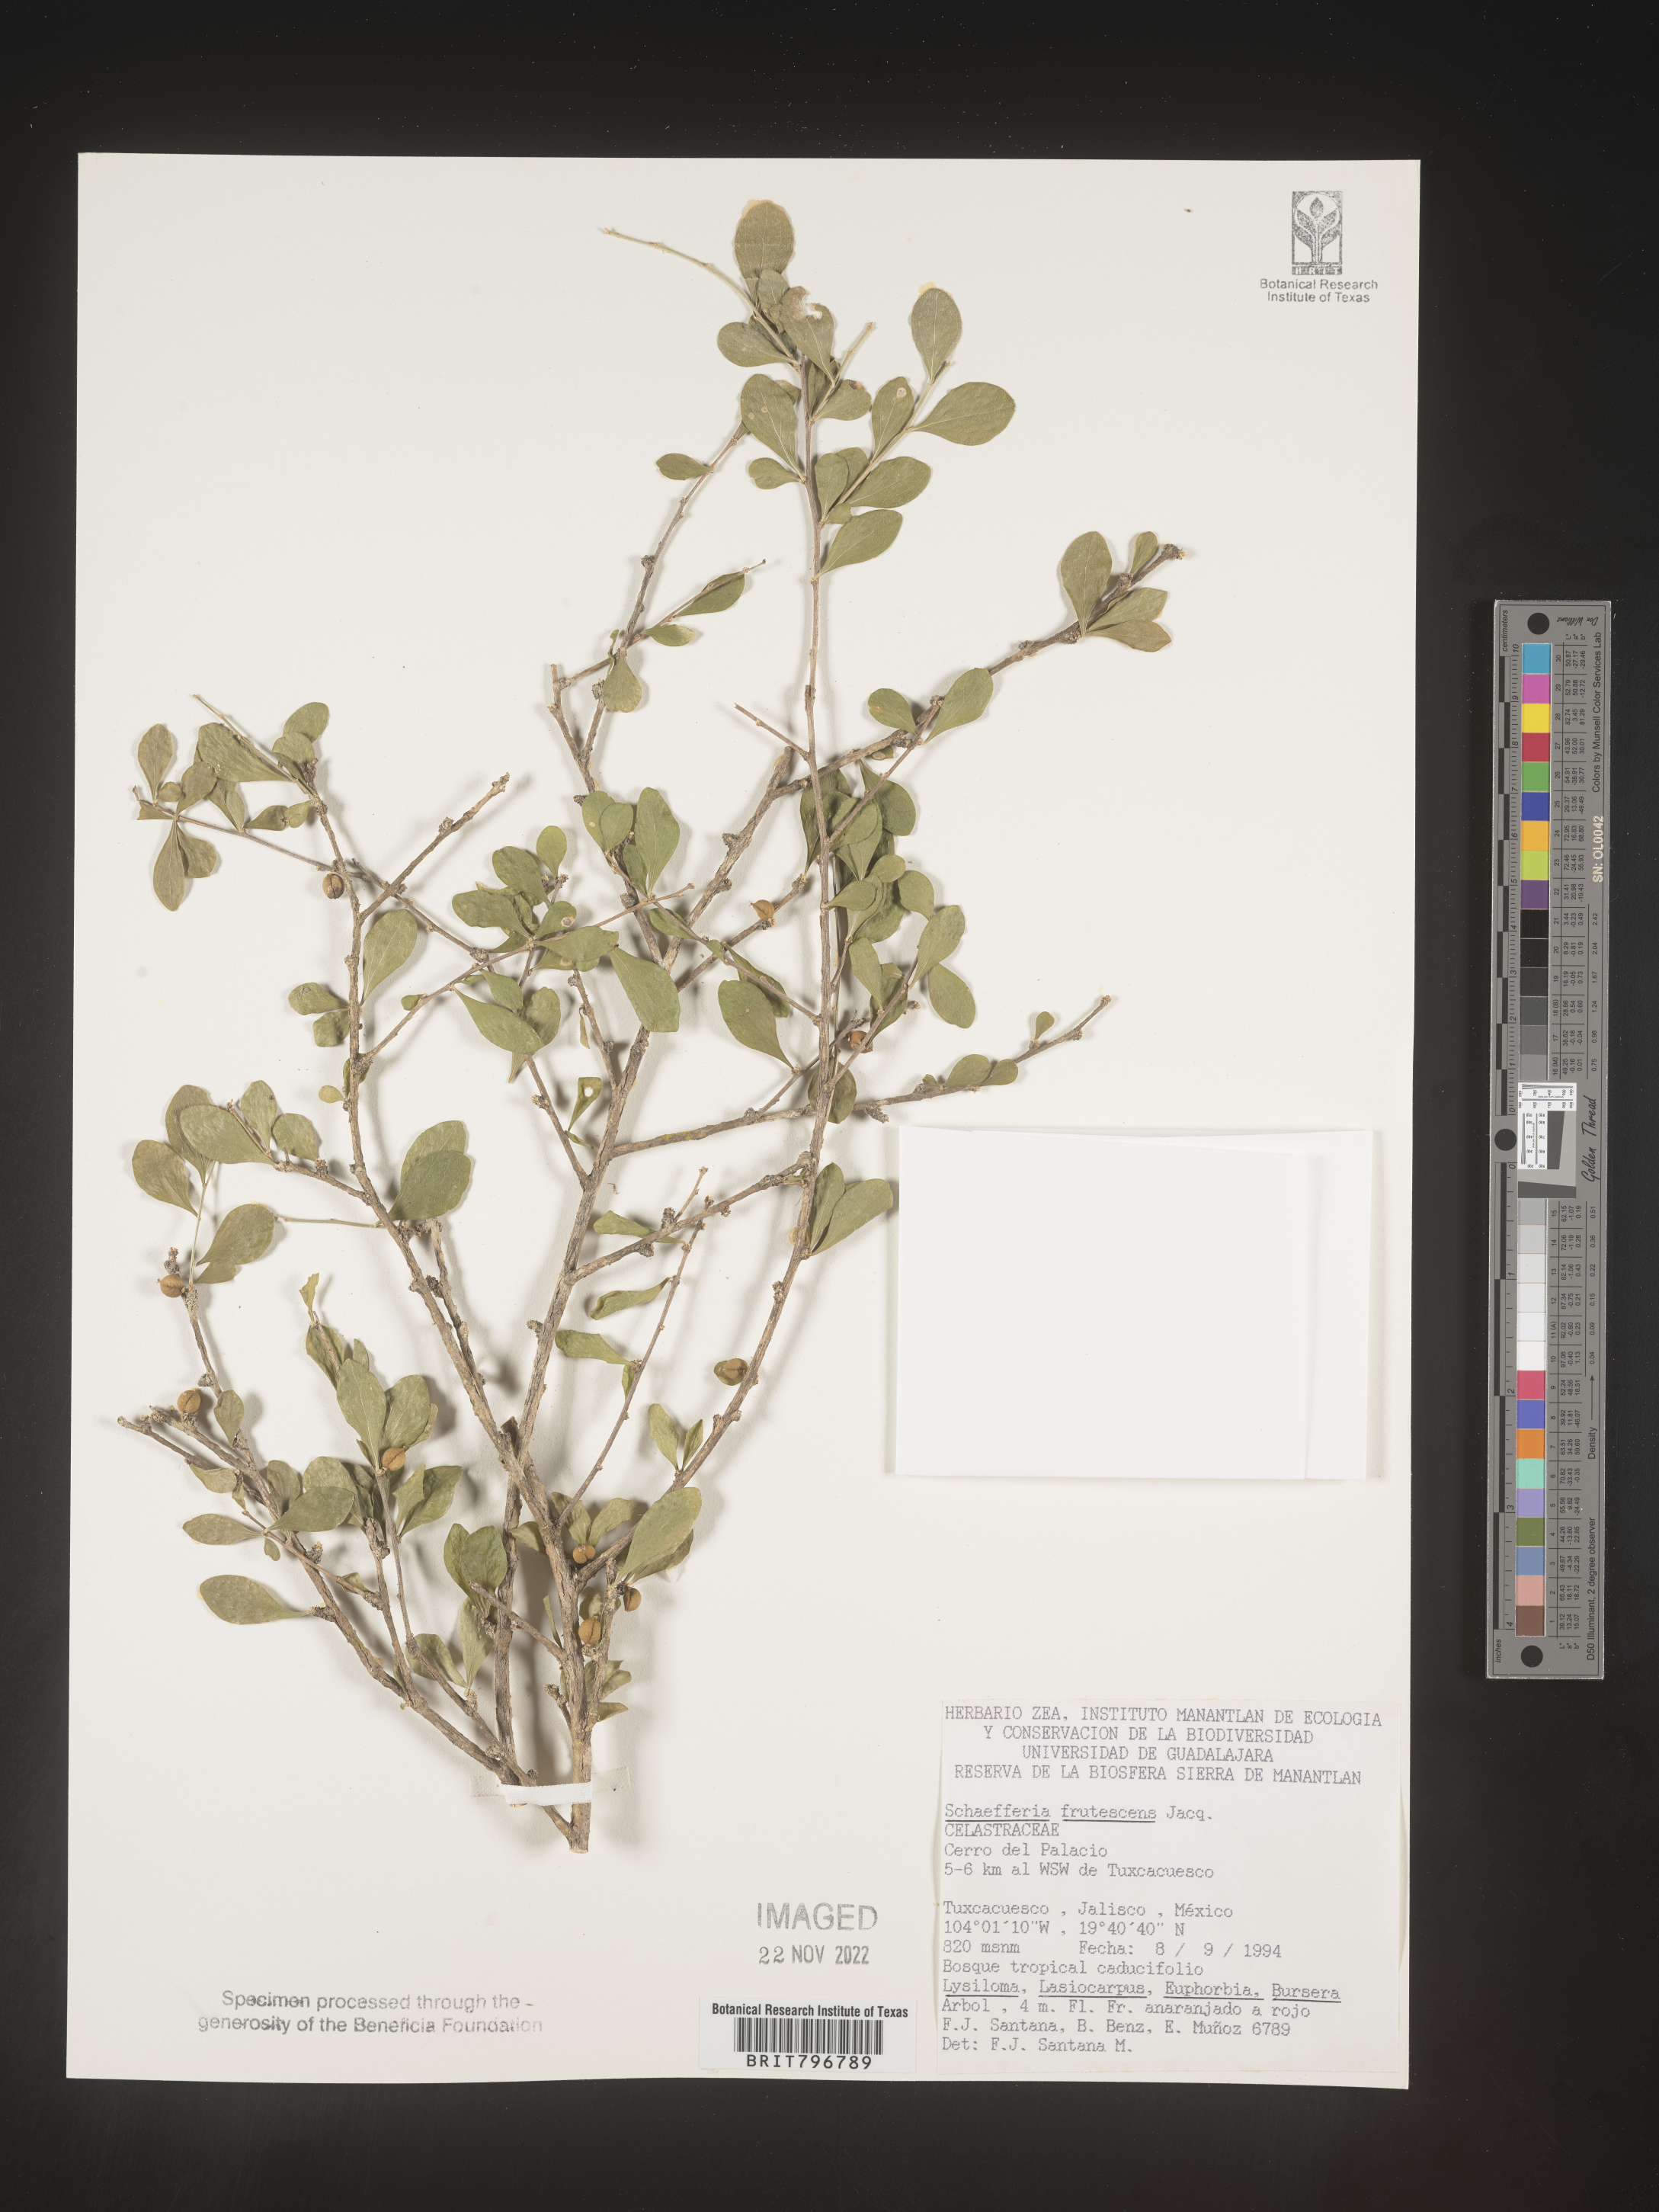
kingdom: Plantae
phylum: Tracheophyta
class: Magnoliopsida
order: Celastrales
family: Celastraceae
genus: Schaefferia
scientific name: Schaefferia
